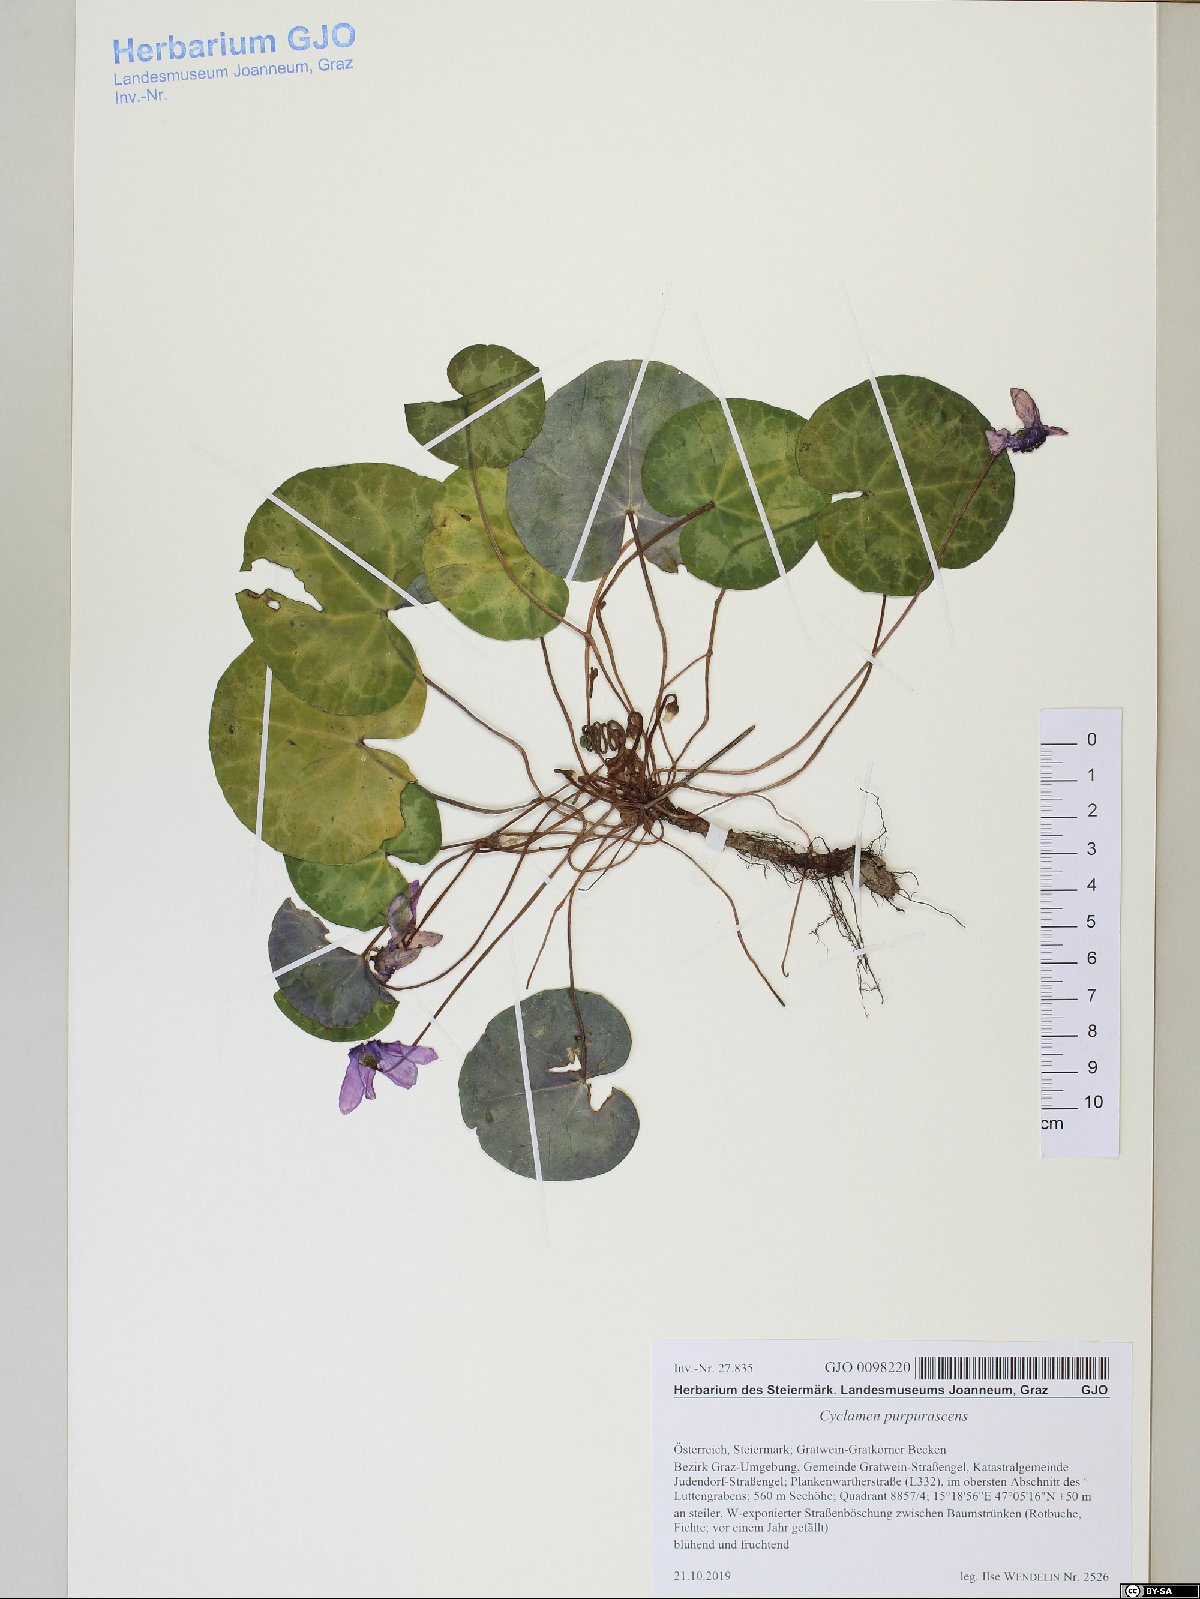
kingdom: Plantae
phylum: Tracheophyta
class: Magnoliopsida
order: Ericales
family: Primulaceae
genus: Cyclamen
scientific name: Cyclamen purpurascens
